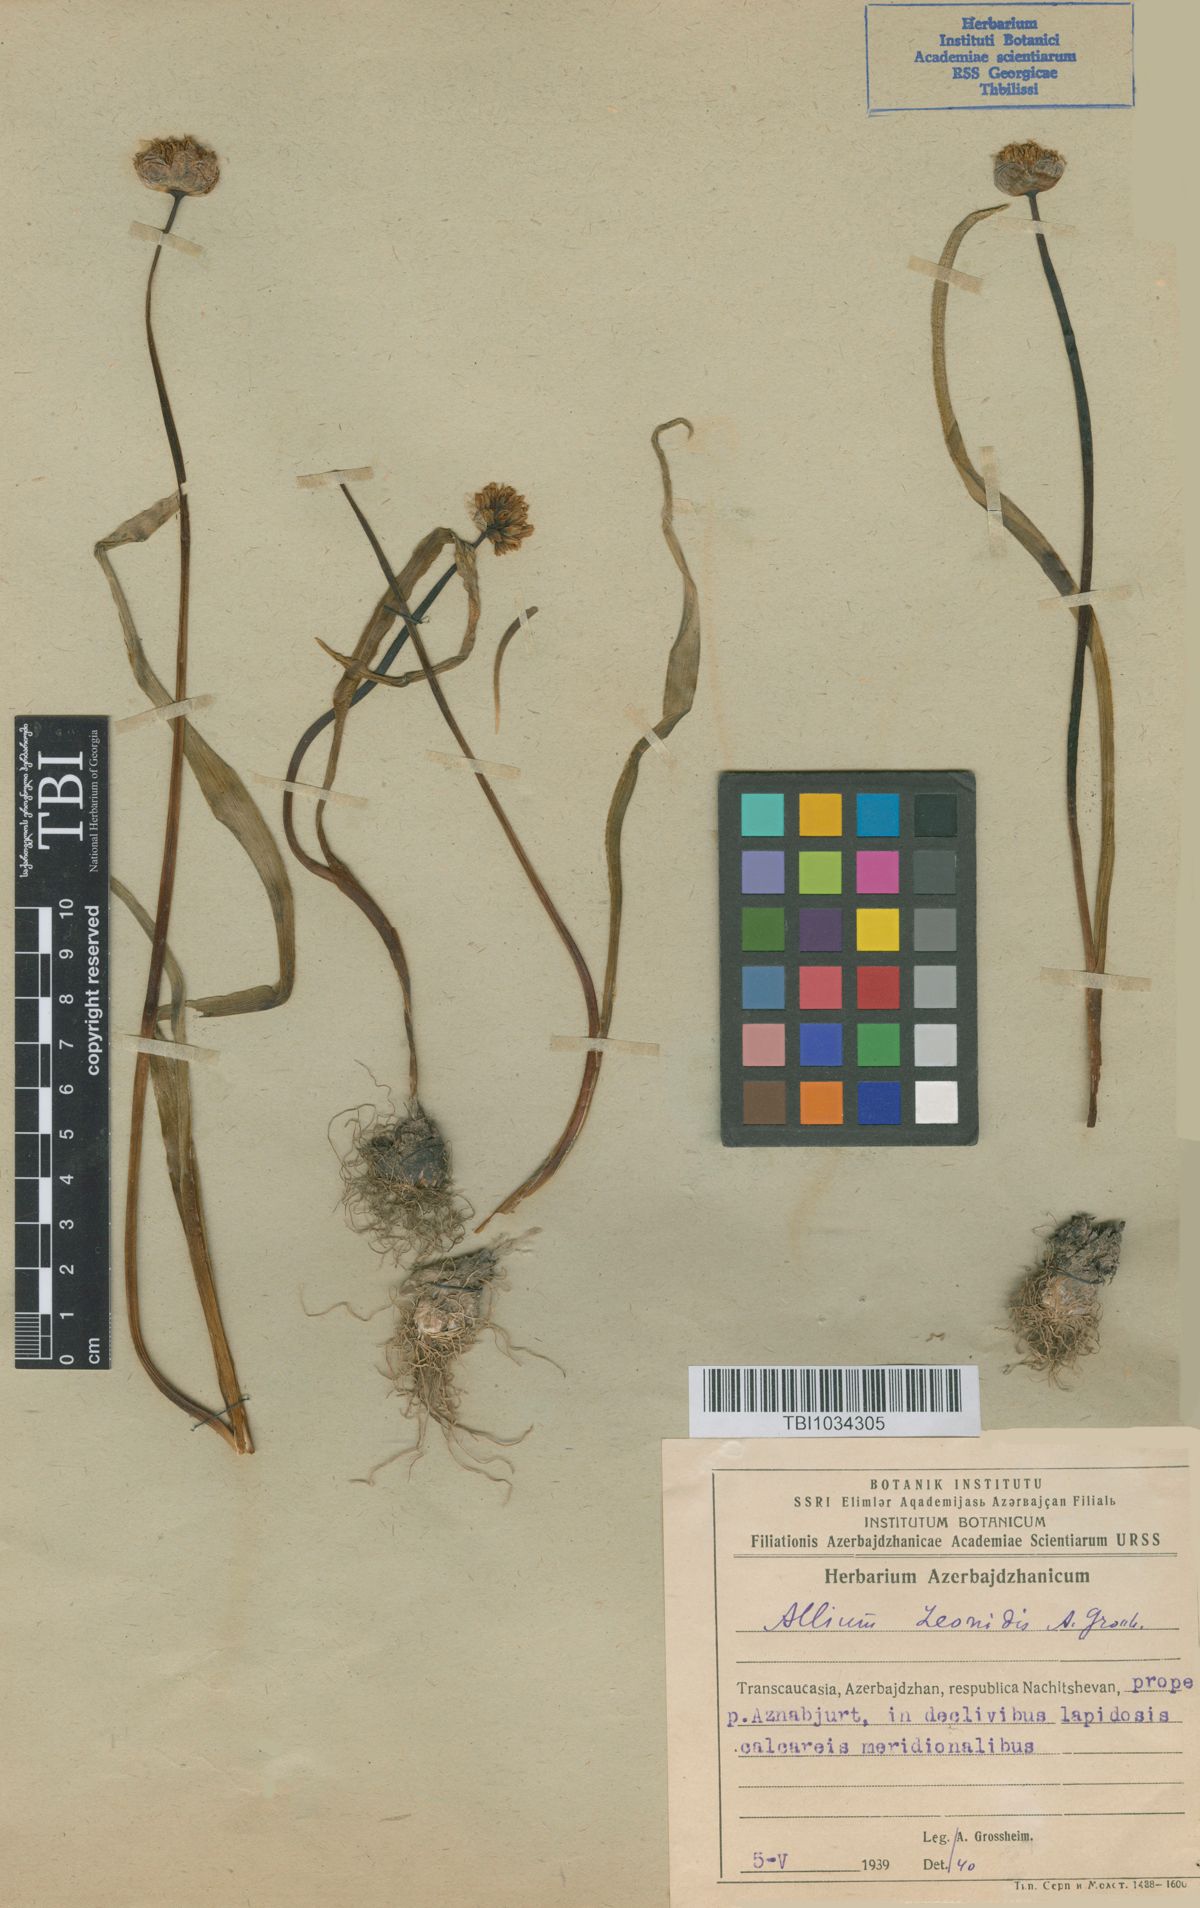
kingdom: Plantae
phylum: Tracheophyta
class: Liliopsida
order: Asparagales
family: Amaryllidaceae
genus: Allium
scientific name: Allium woronowii
